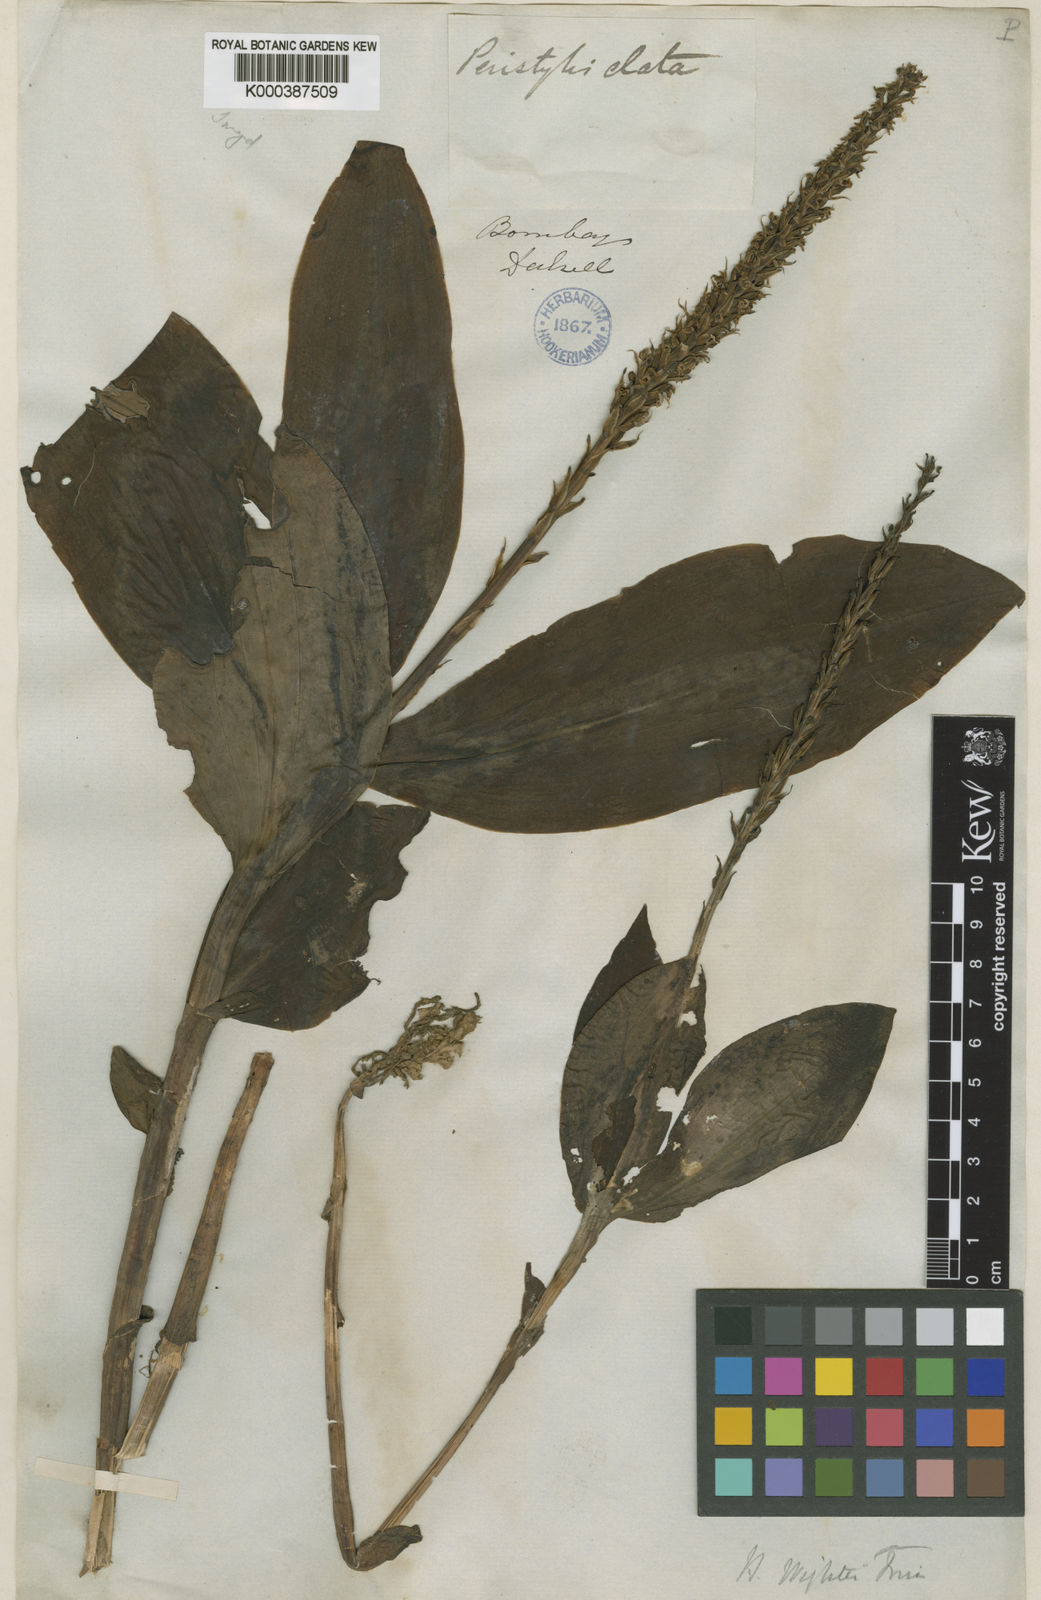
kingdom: Plantae
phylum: Tracheophyta
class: Liliopsida
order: Asparagales
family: Orchidaceae
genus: Peristylus
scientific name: Peristylus plantagineus
